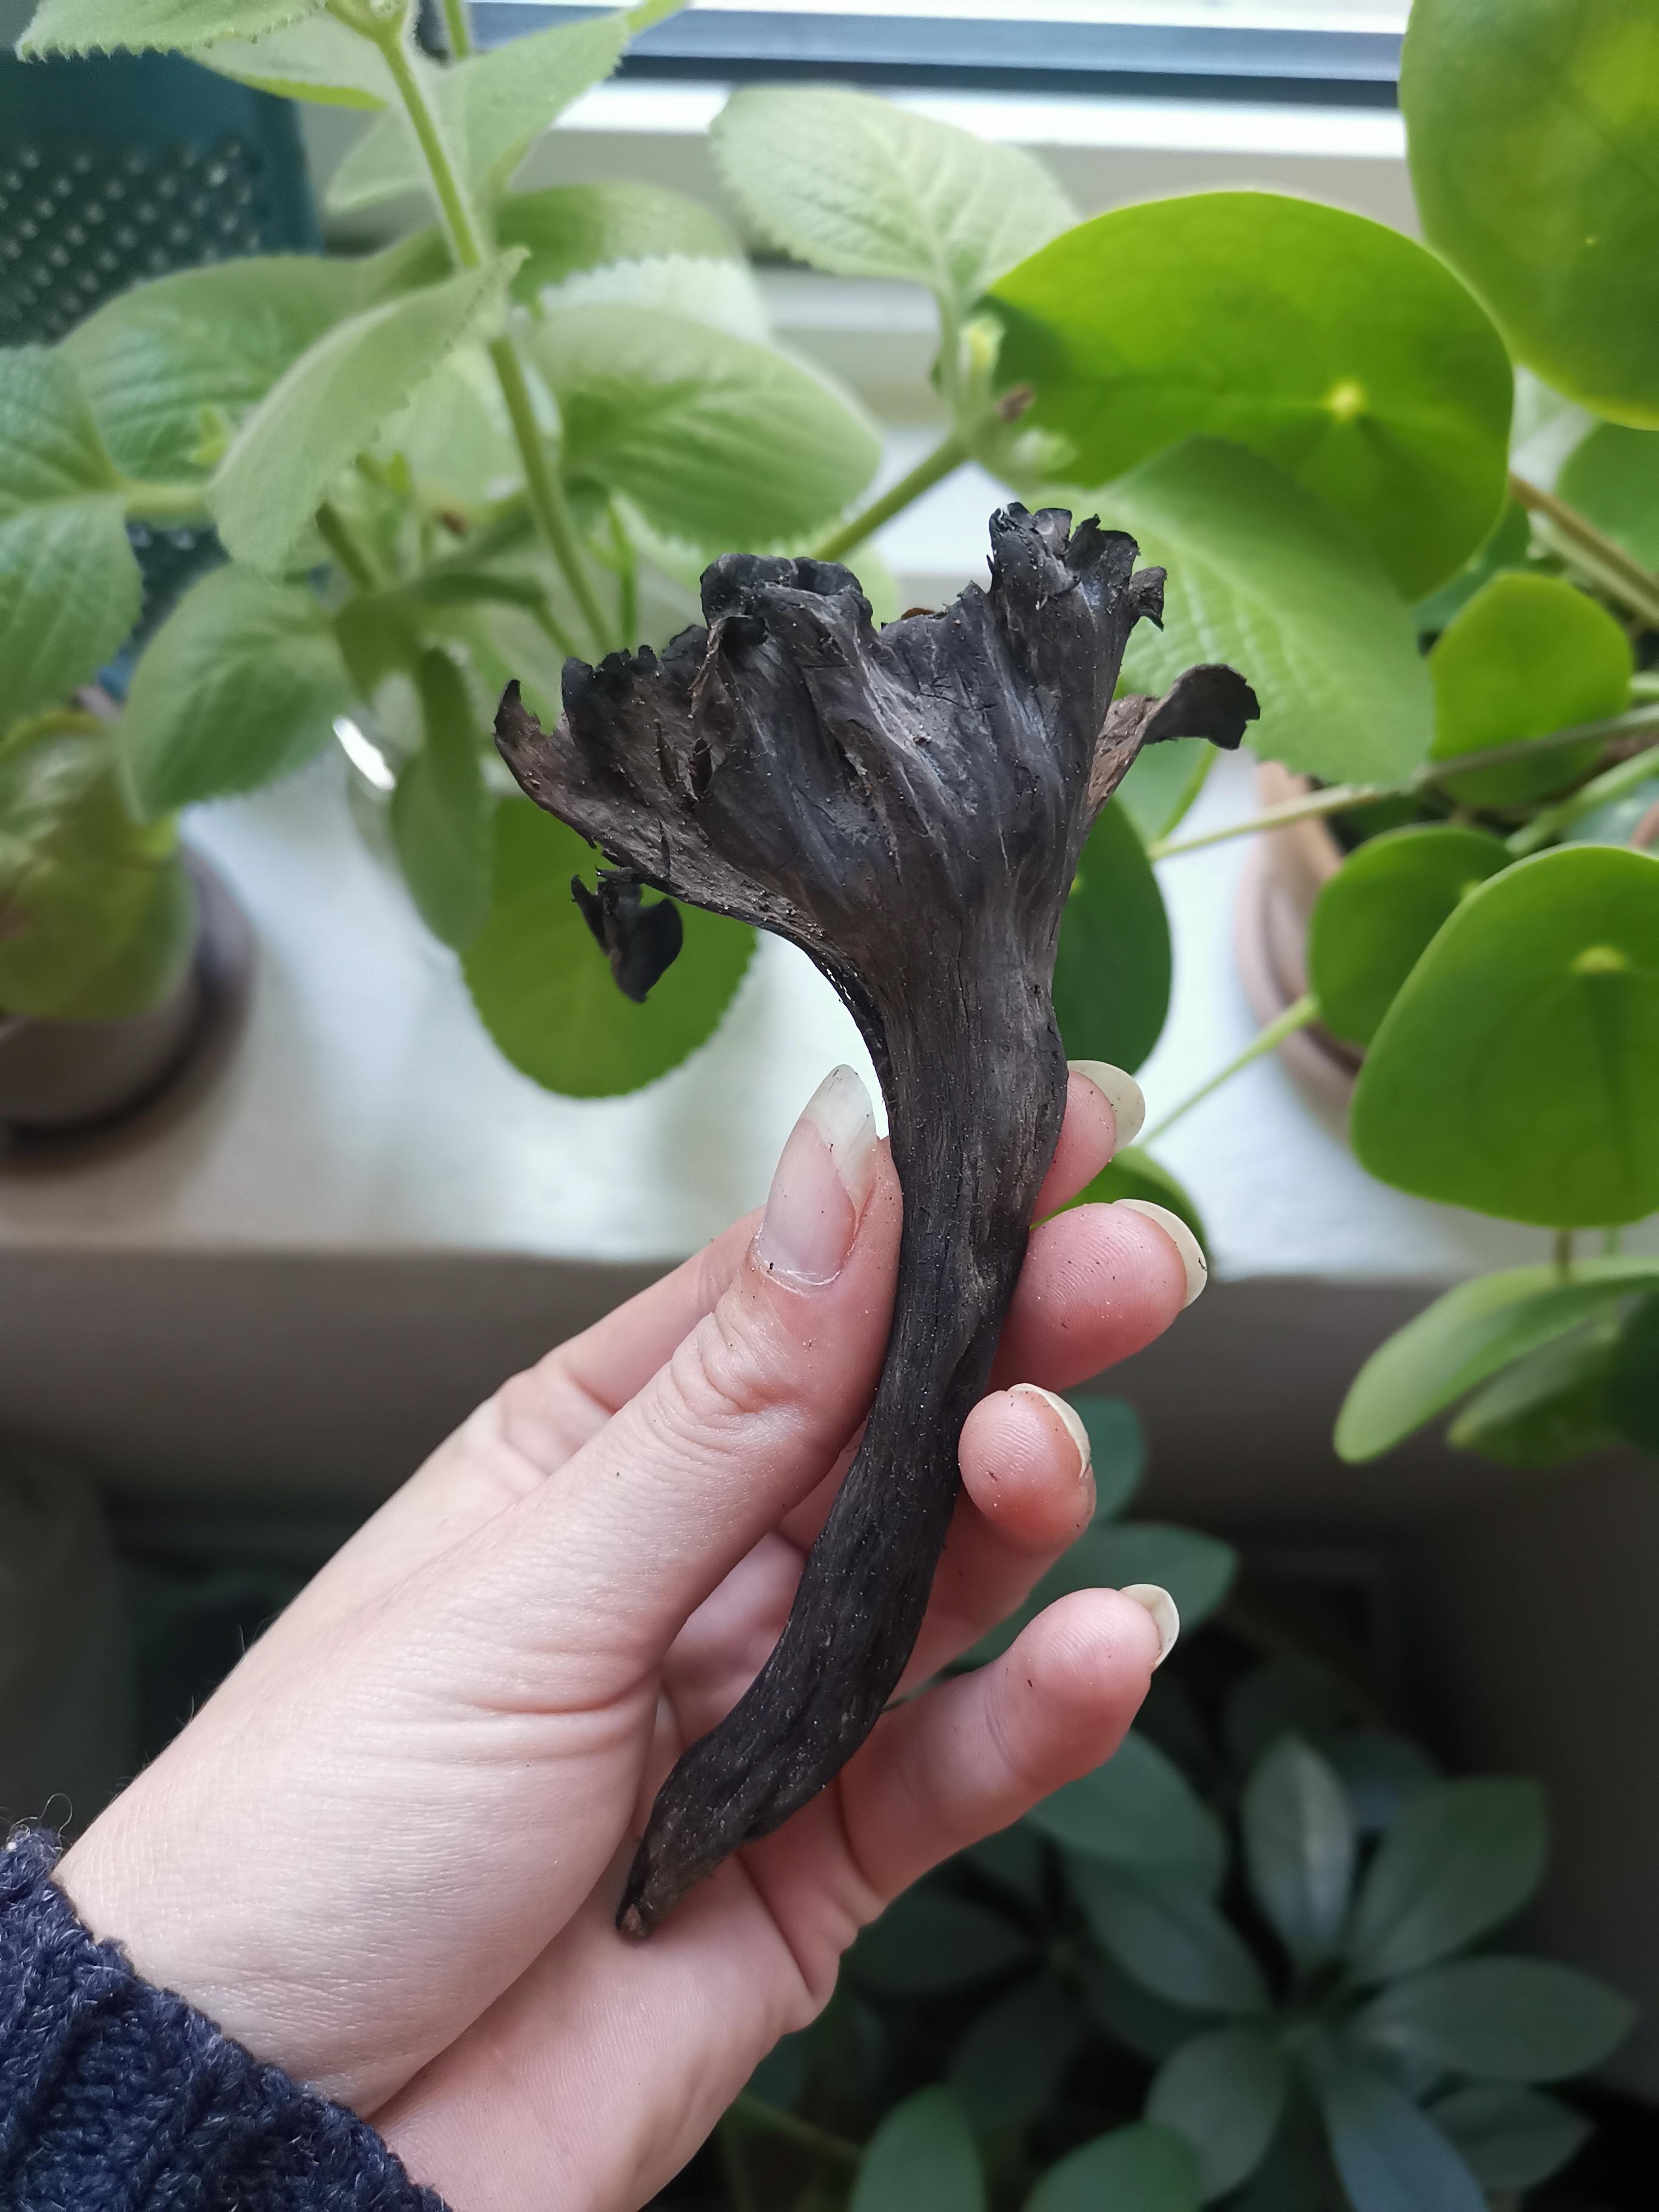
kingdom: Fungi
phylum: Basidiomycota
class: Agaricomycetes
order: Cantharellales
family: Hydnaceae
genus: Craterellus
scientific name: Craterellus cornucopioides
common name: trompetsvamp
